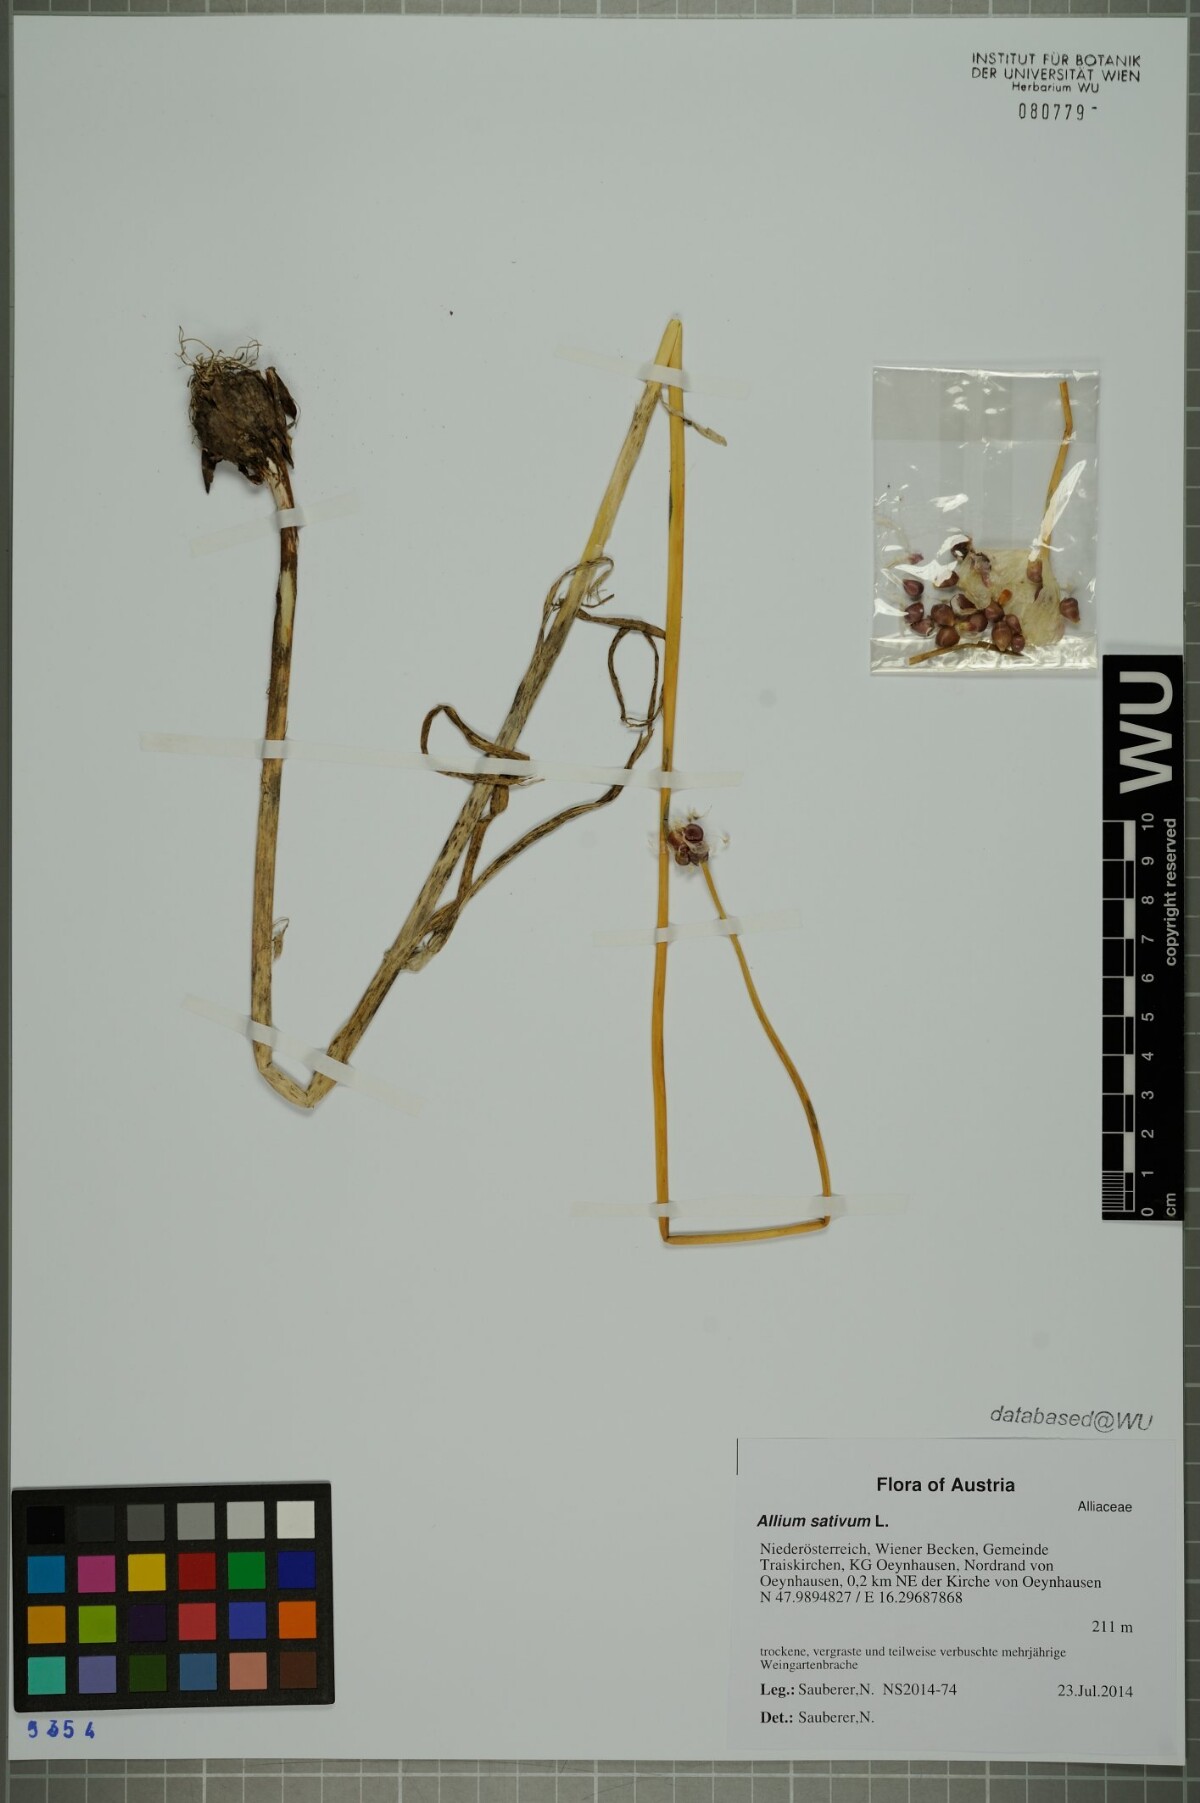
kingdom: Plantae
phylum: Tracheophyta
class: Liliopsida
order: Asparagales
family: Amaryllidaceae
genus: Allium
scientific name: Allium sativum
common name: Garlic
